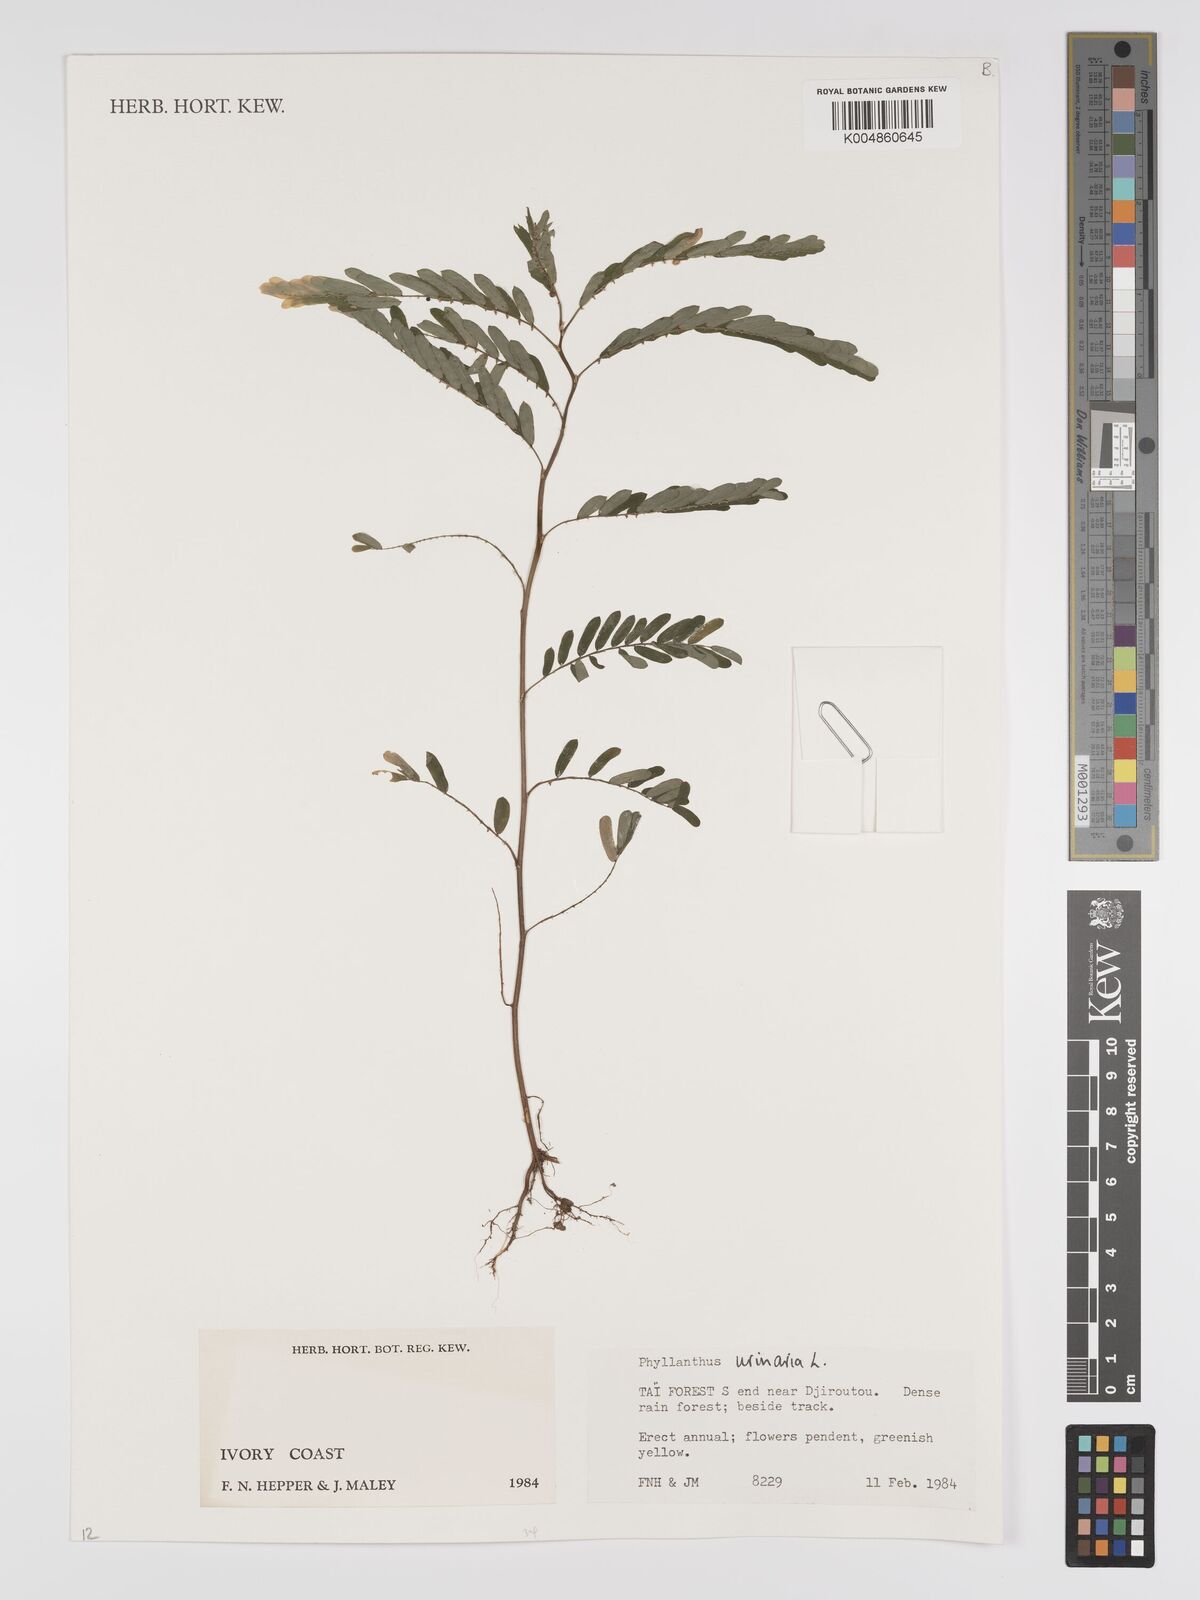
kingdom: Plantae
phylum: Tracheophyta
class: Magnoliopsida
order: Malpighiales
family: Phyllanthaceae
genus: Phyllanthus
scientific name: Phyllanthus urinaria
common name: Chamber bitter
